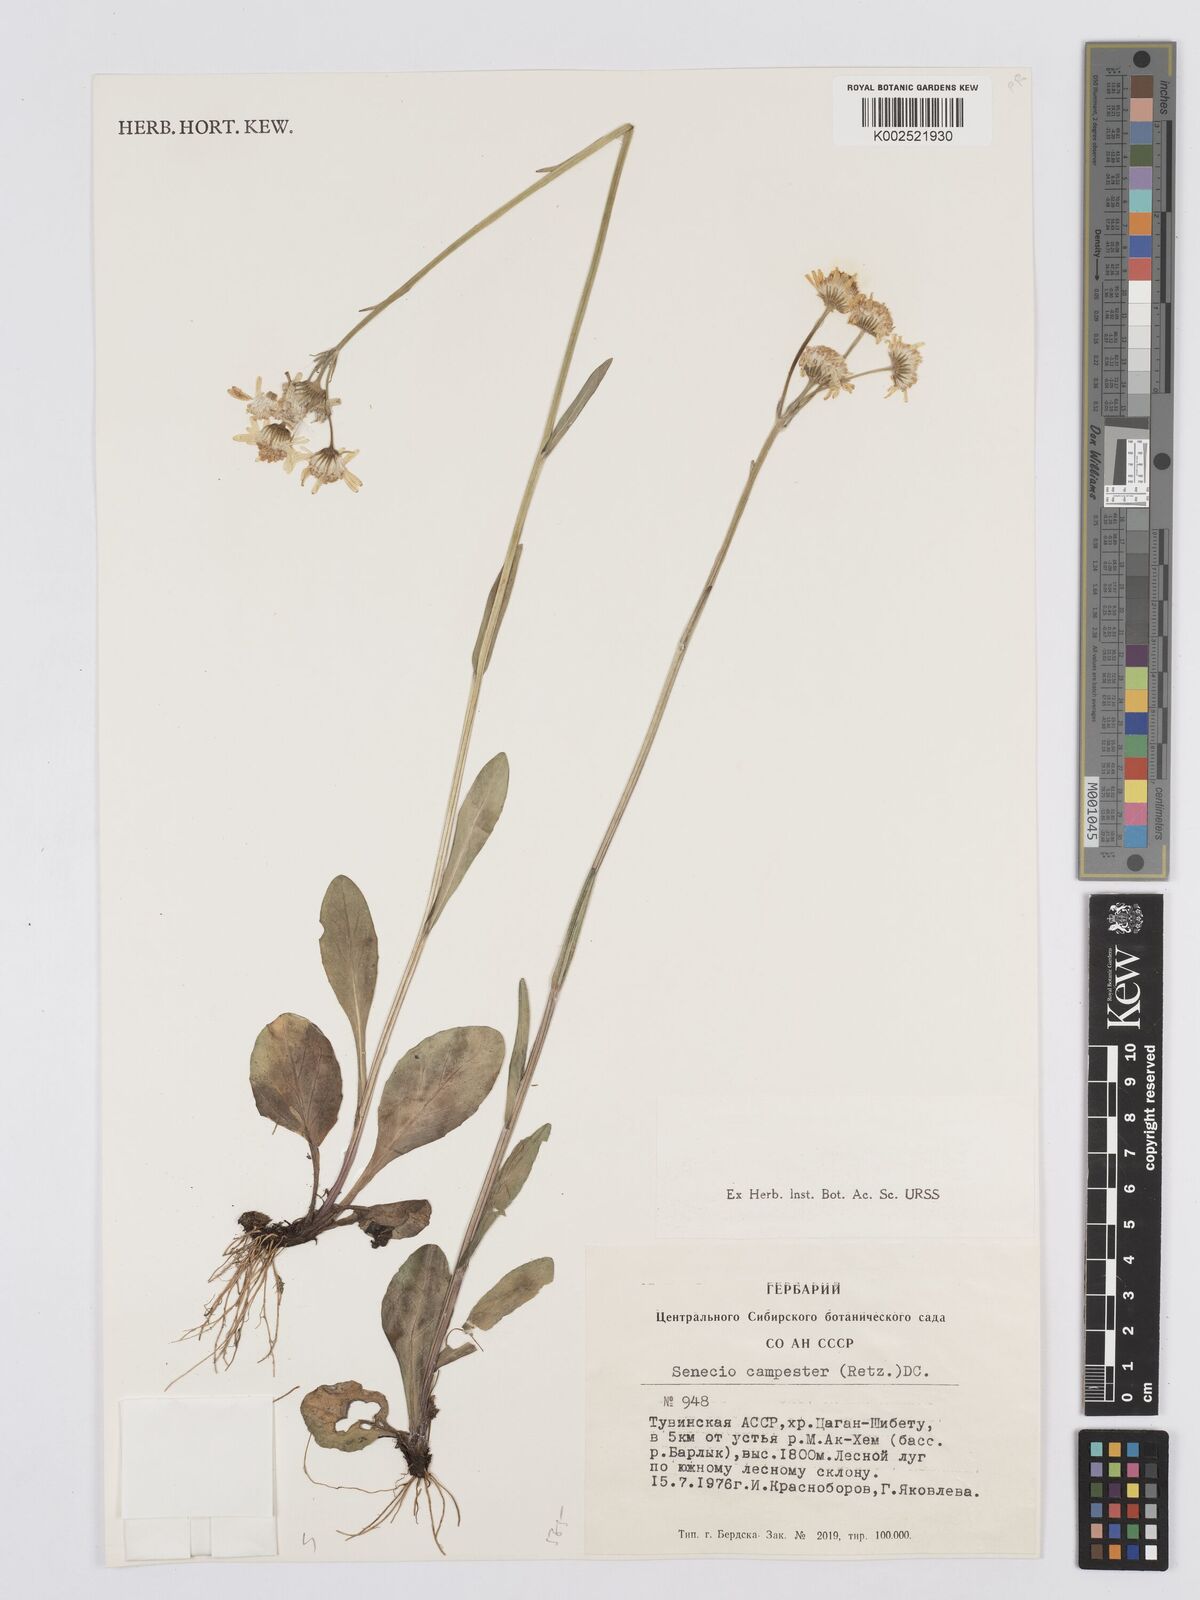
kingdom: Plantae
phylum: Tracheophyta
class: Magnoliopsida
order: Asterales
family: Asteraceae
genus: Tephroseris
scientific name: Tephroseris integrifolia
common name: Field fleawort
